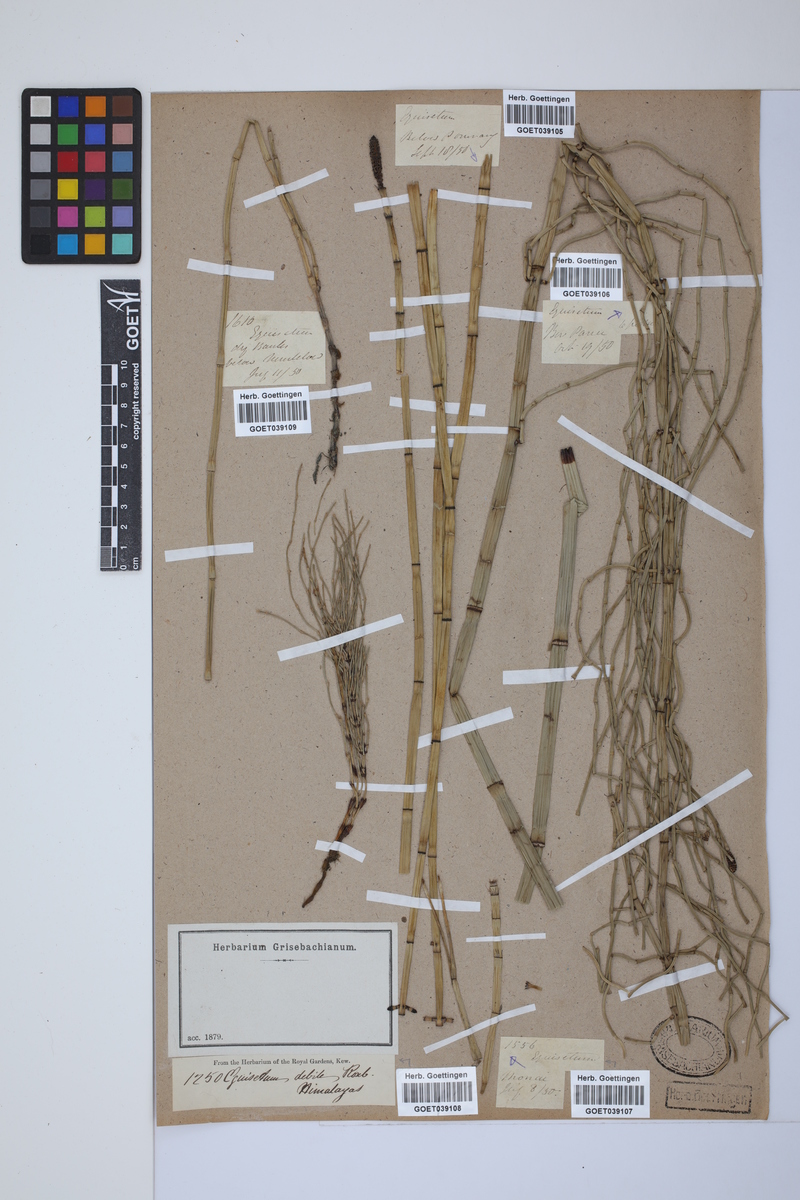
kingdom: Plantae
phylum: Tracheophyta
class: Polypodiopsida
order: Equisetales
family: Equisetaceae
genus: Equisetum
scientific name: Equisetum ramosissimum
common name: Branched horsetail
